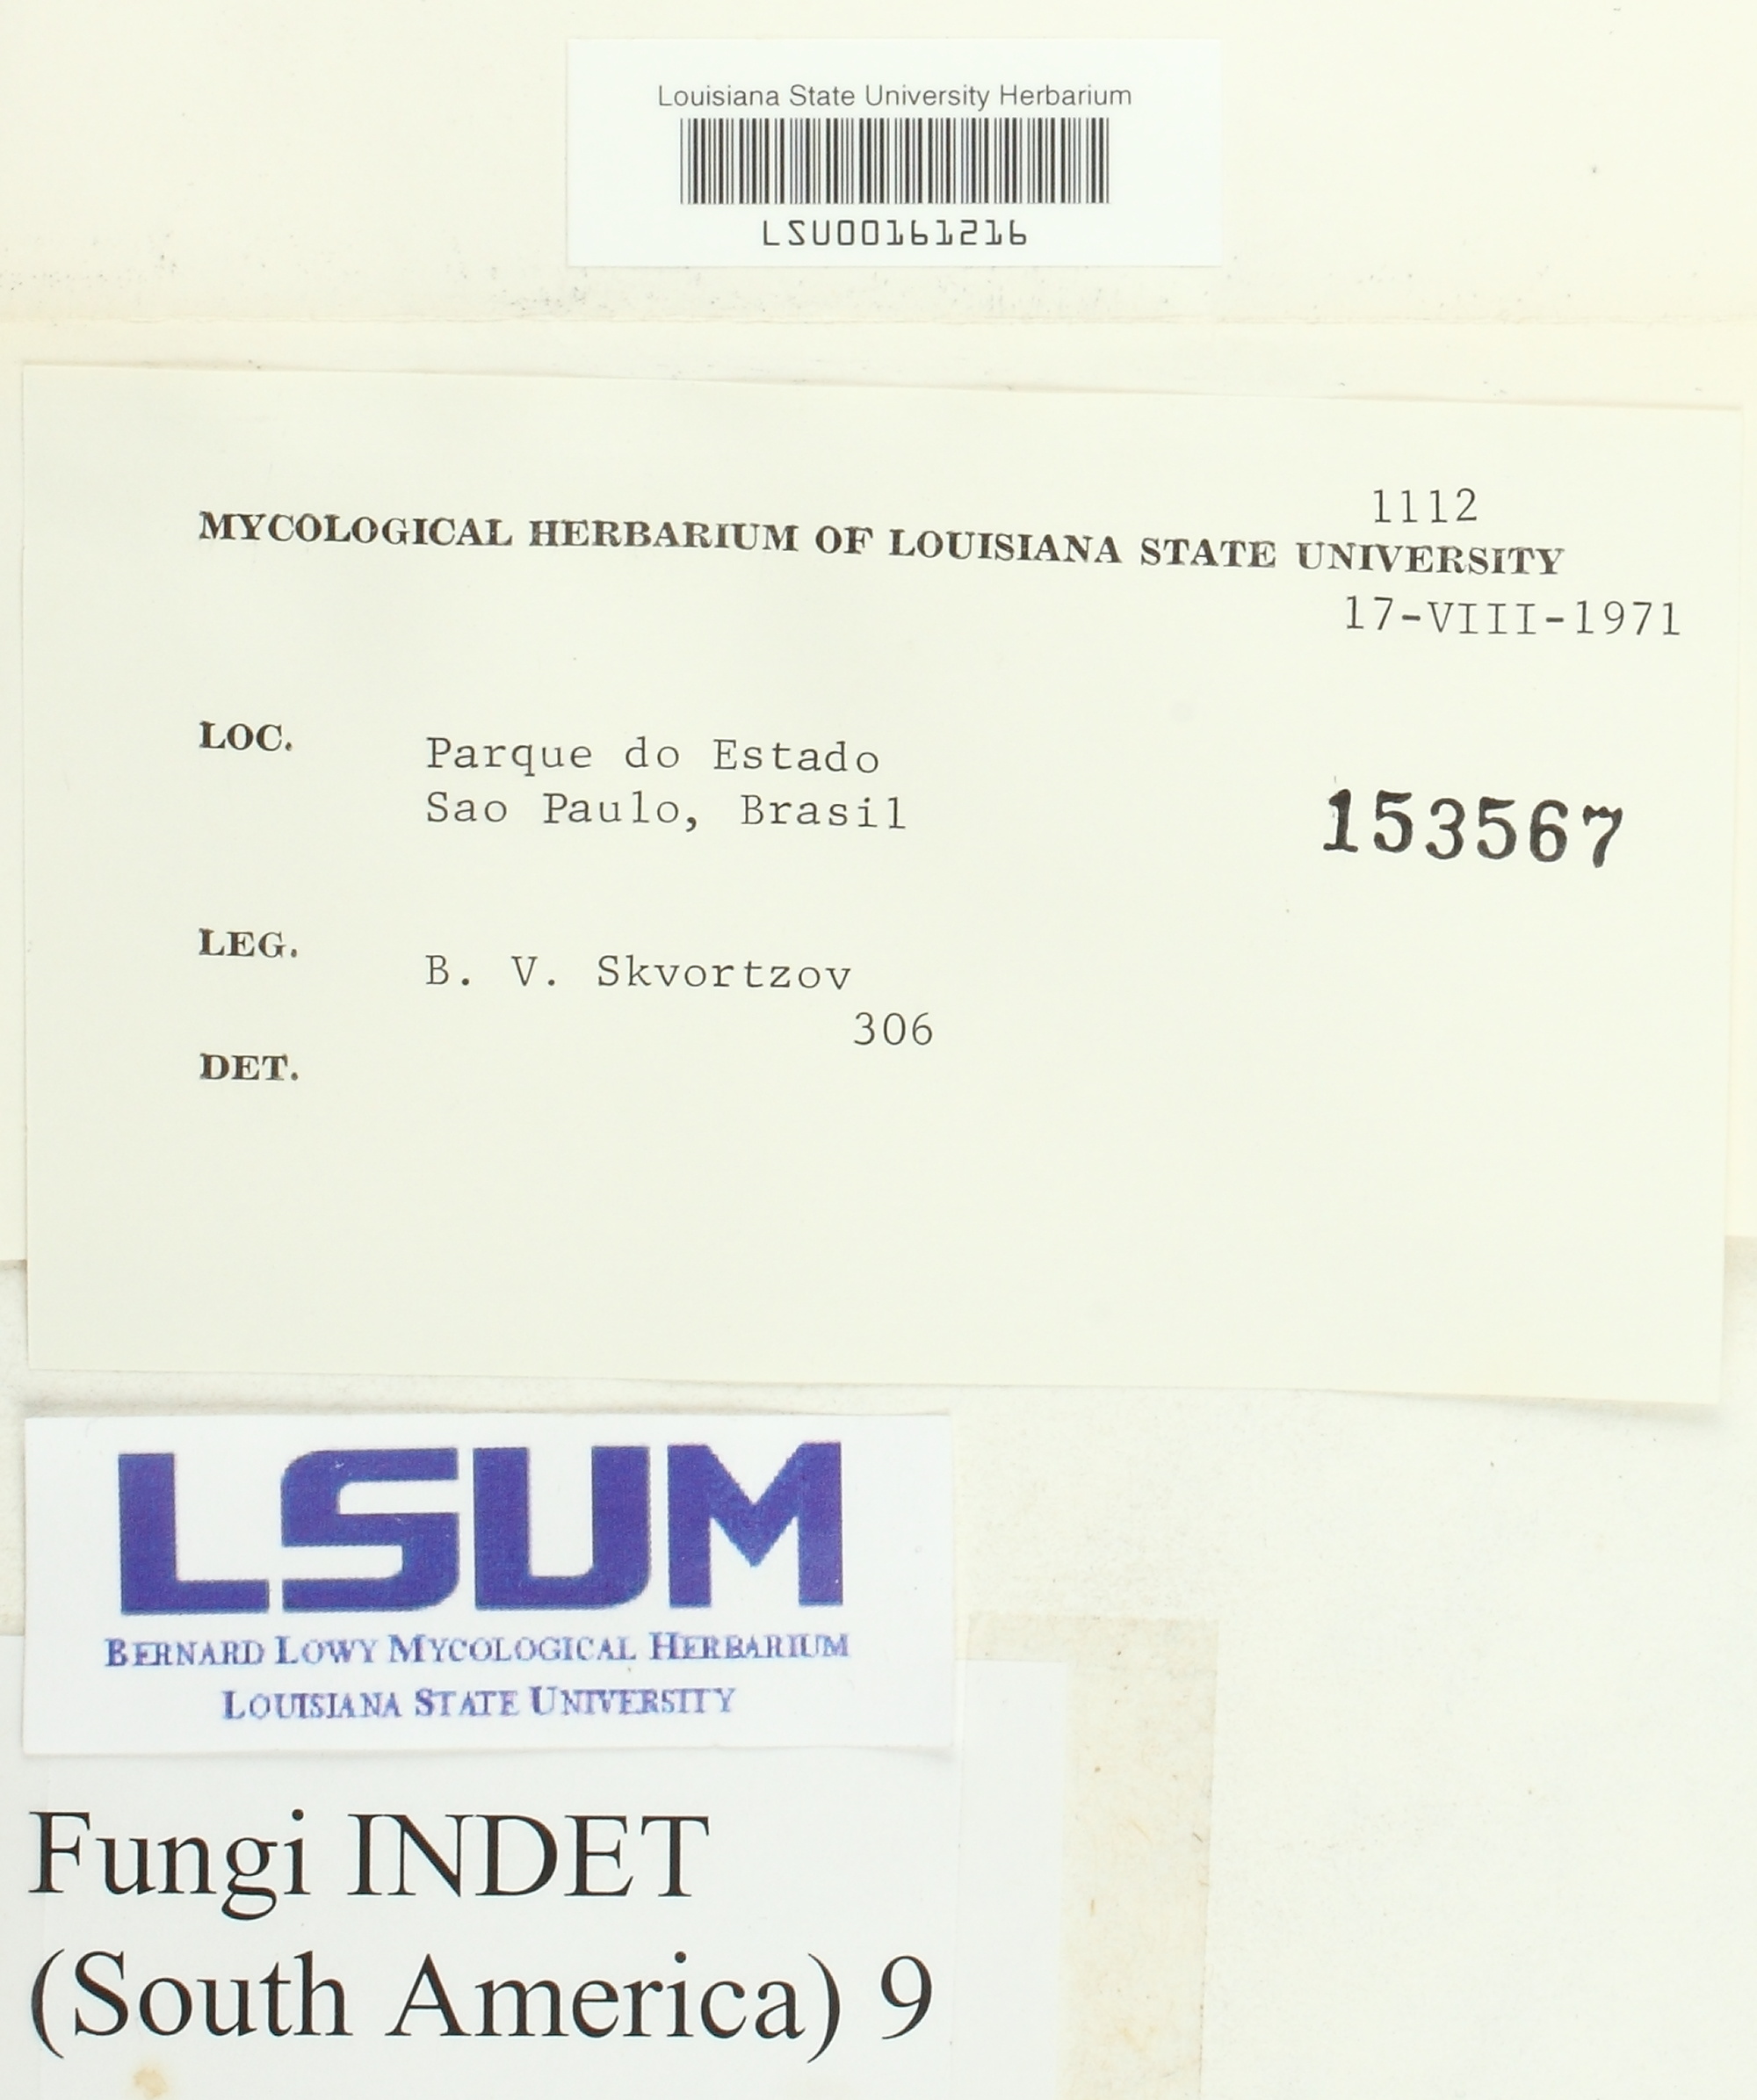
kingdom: Fungi
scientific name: Fungi
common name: Fungi
